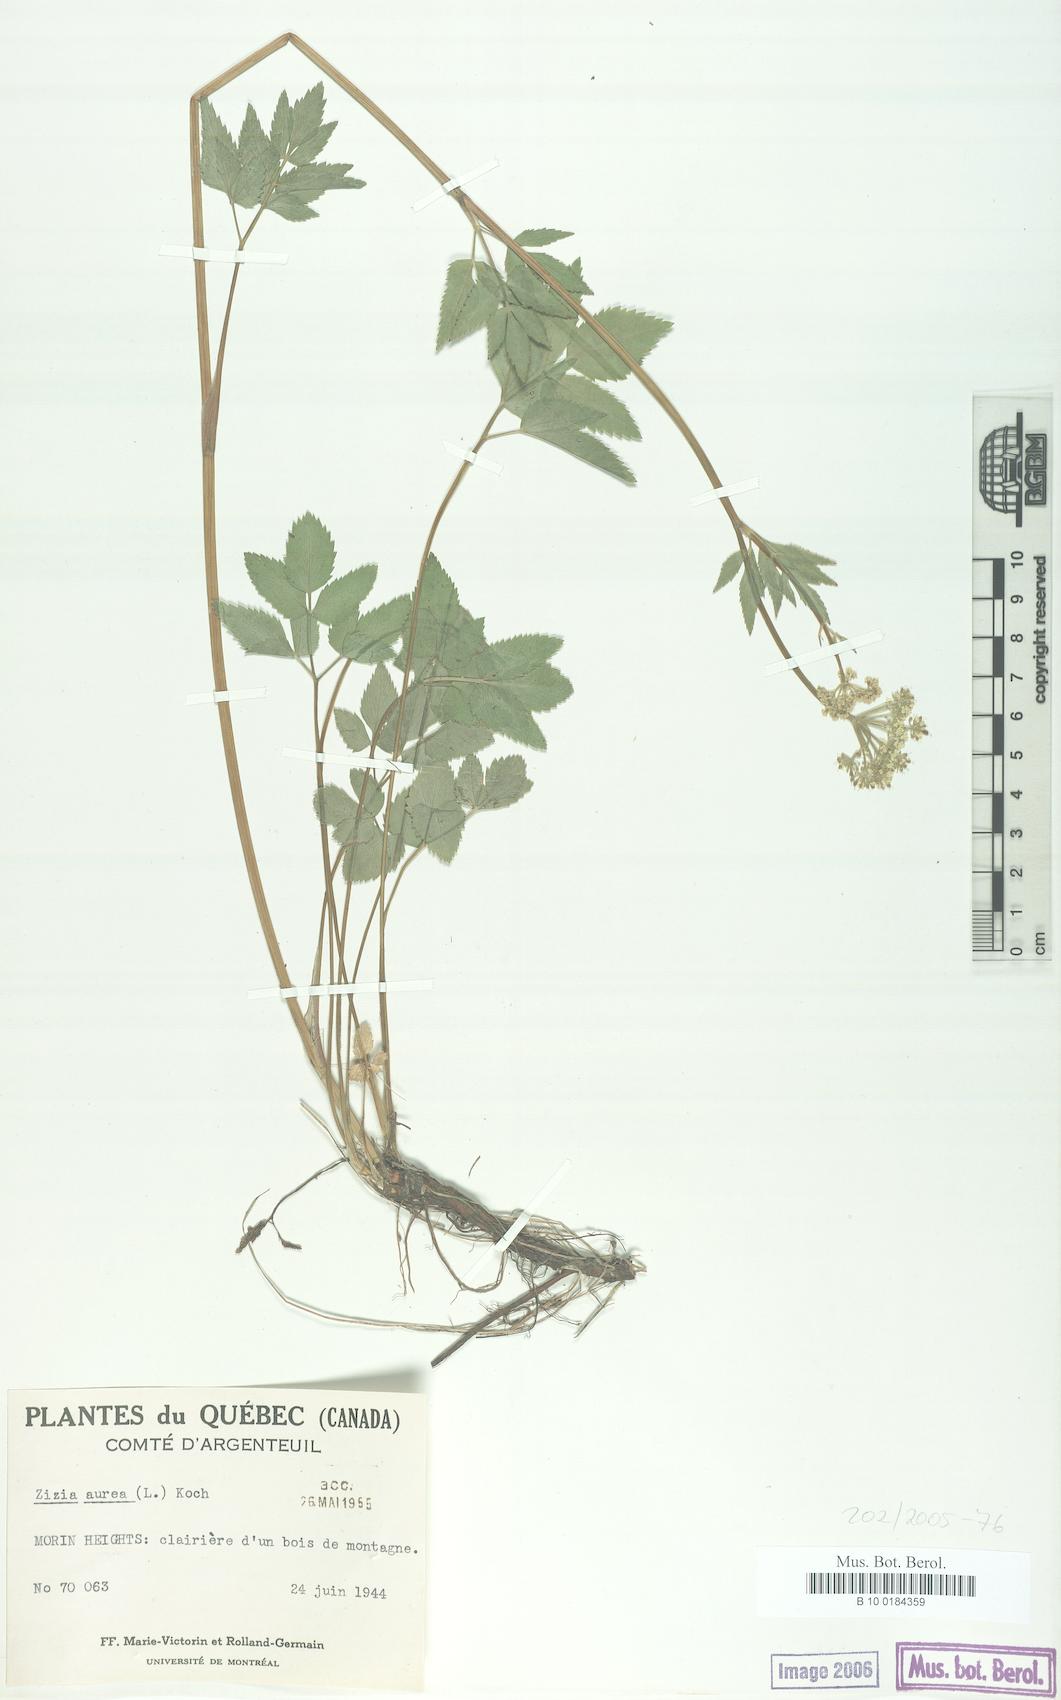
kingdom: Plantae
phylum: Tracheophyta
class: Magnoliopsida
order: Apiales
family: Apiaceae
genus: Zizia
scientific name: Zizia aurea
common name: Golden alexanders
